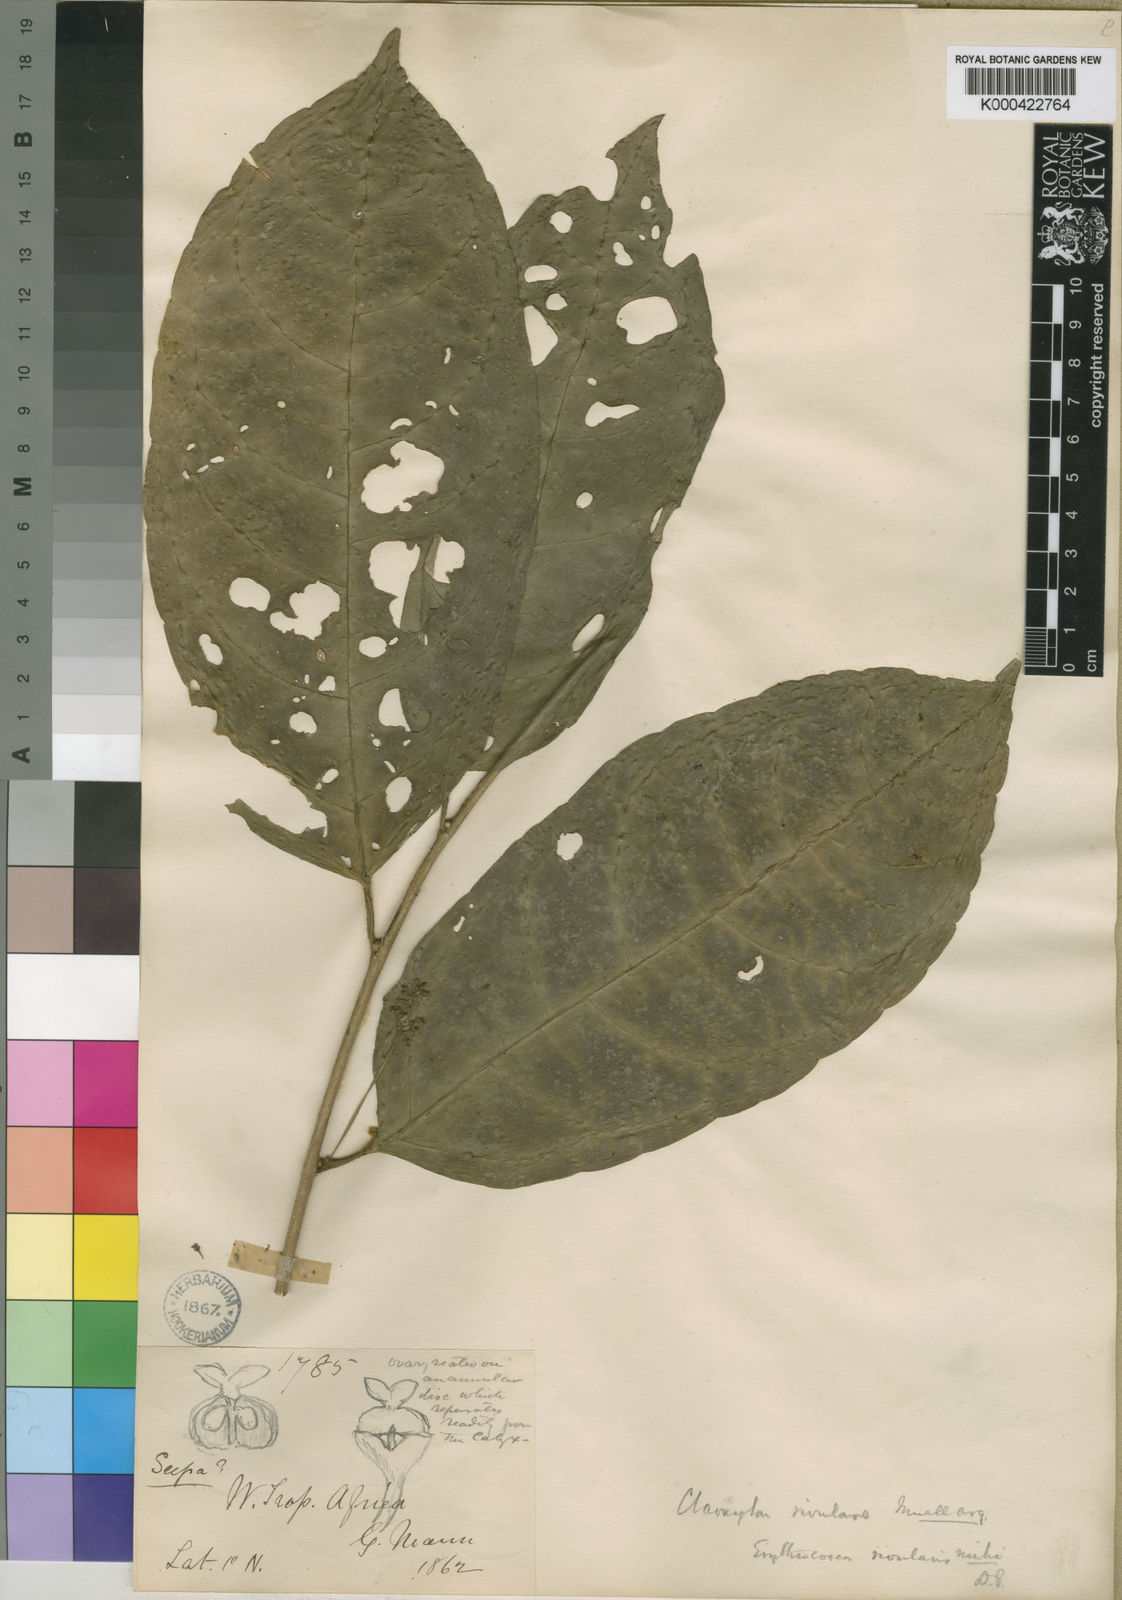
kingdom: Plantae
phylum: Tracheophyta
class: Magnoliopsida
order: Malpighiales
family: Euphorbiaceae
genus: Erythrococca
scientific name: Erythrococca
